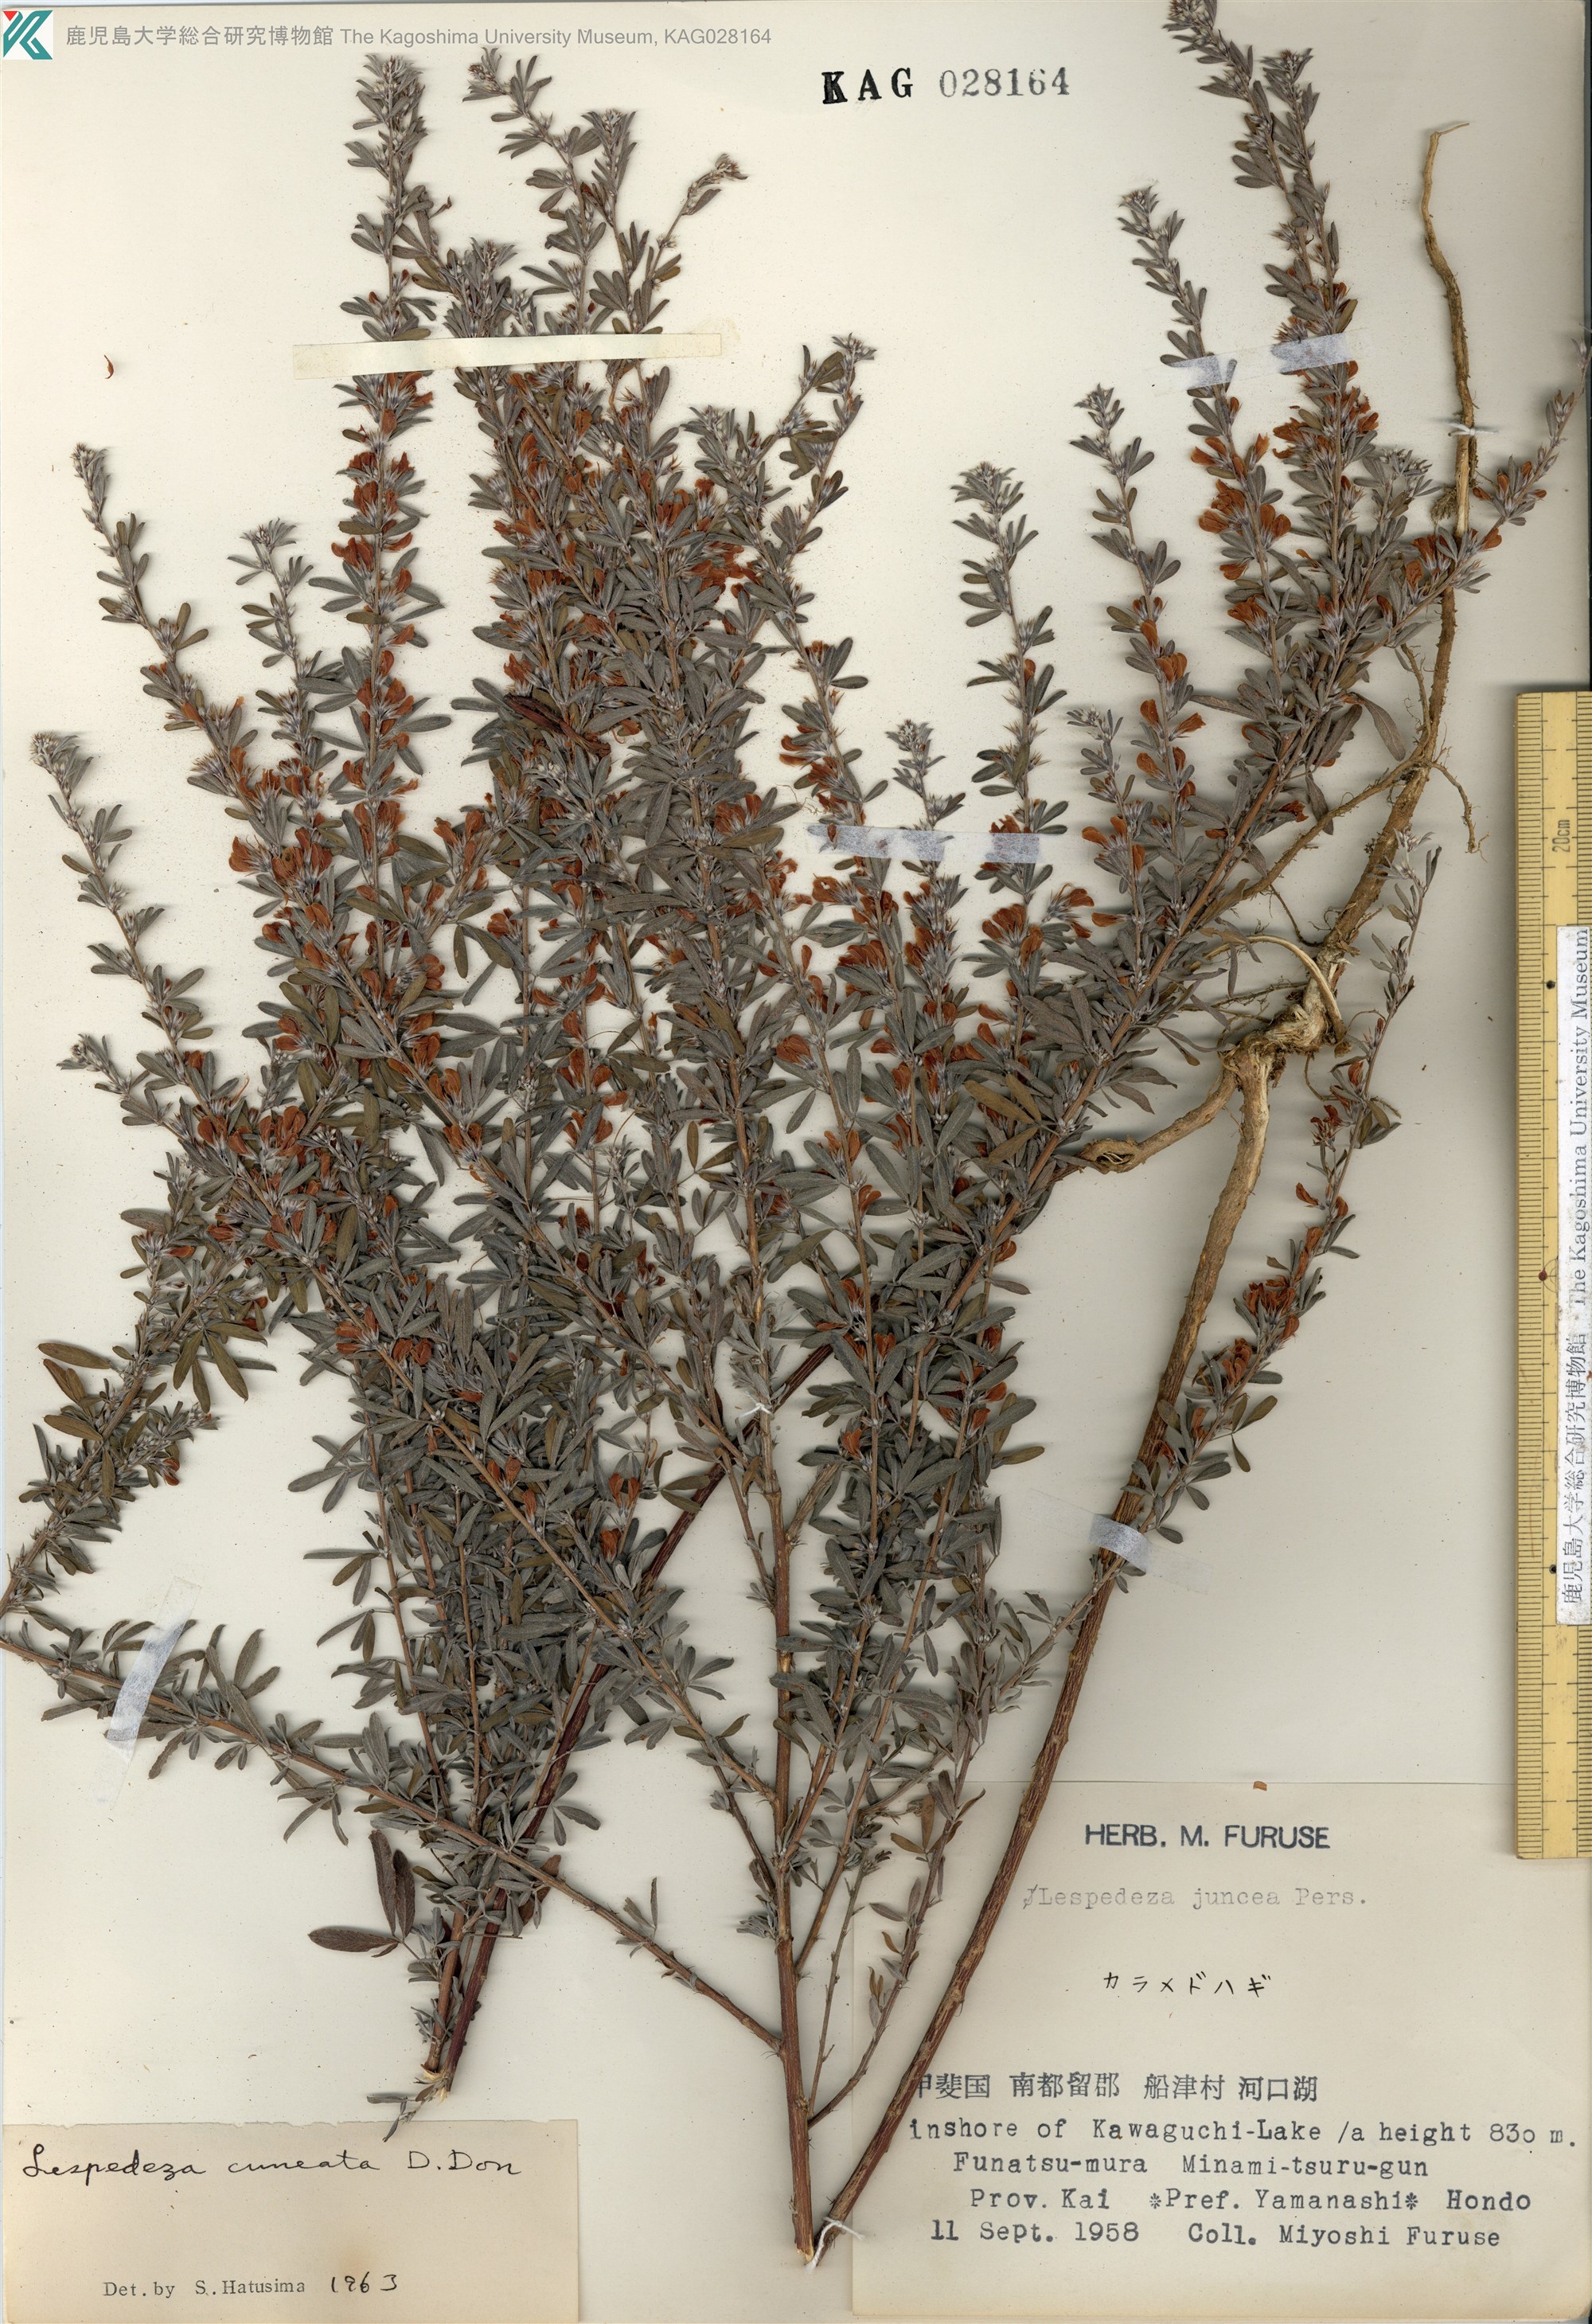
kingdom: Plantae
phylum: Tracheophyta
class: Magnoliopsida
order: Fabales
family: Fabaceae
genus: Lespedeza
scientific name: Lespedeza cuneata
